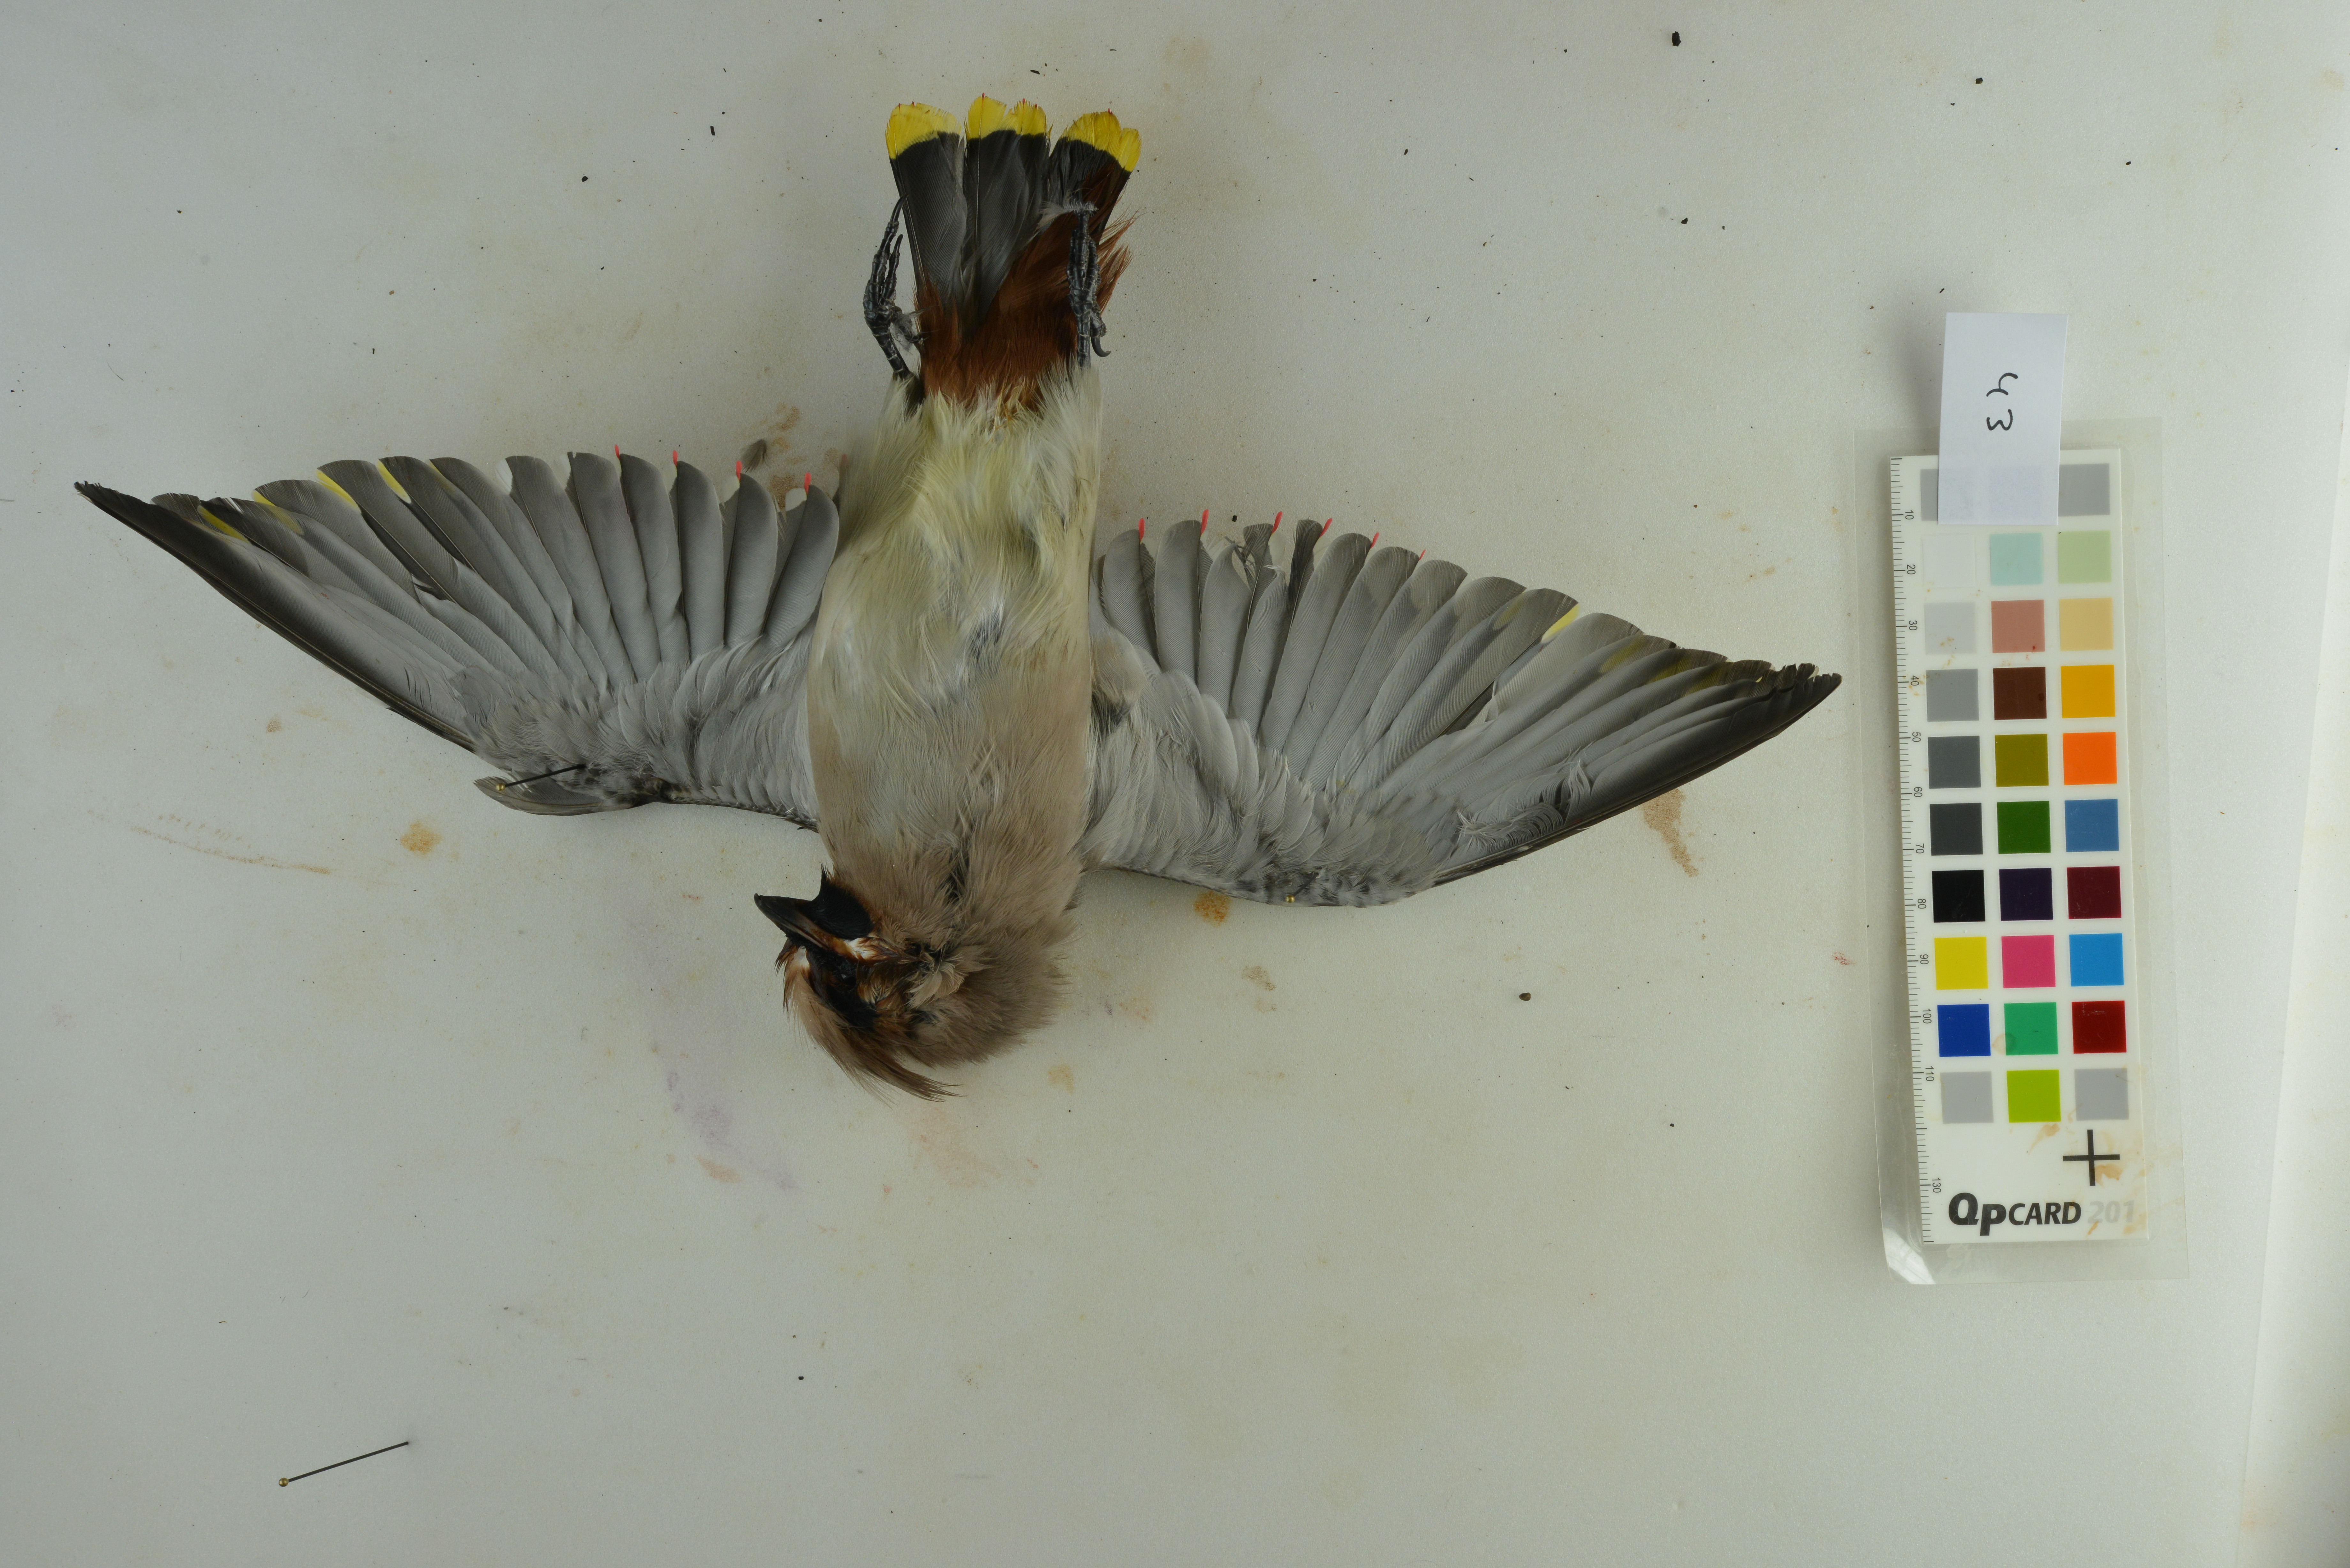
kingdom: Animalia
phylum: Chordata
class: Aves
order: Passeriformes
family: Bombycillidae
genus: Bombycilla
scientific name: Bombycilla garrulus
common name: Bohemian waxwing
